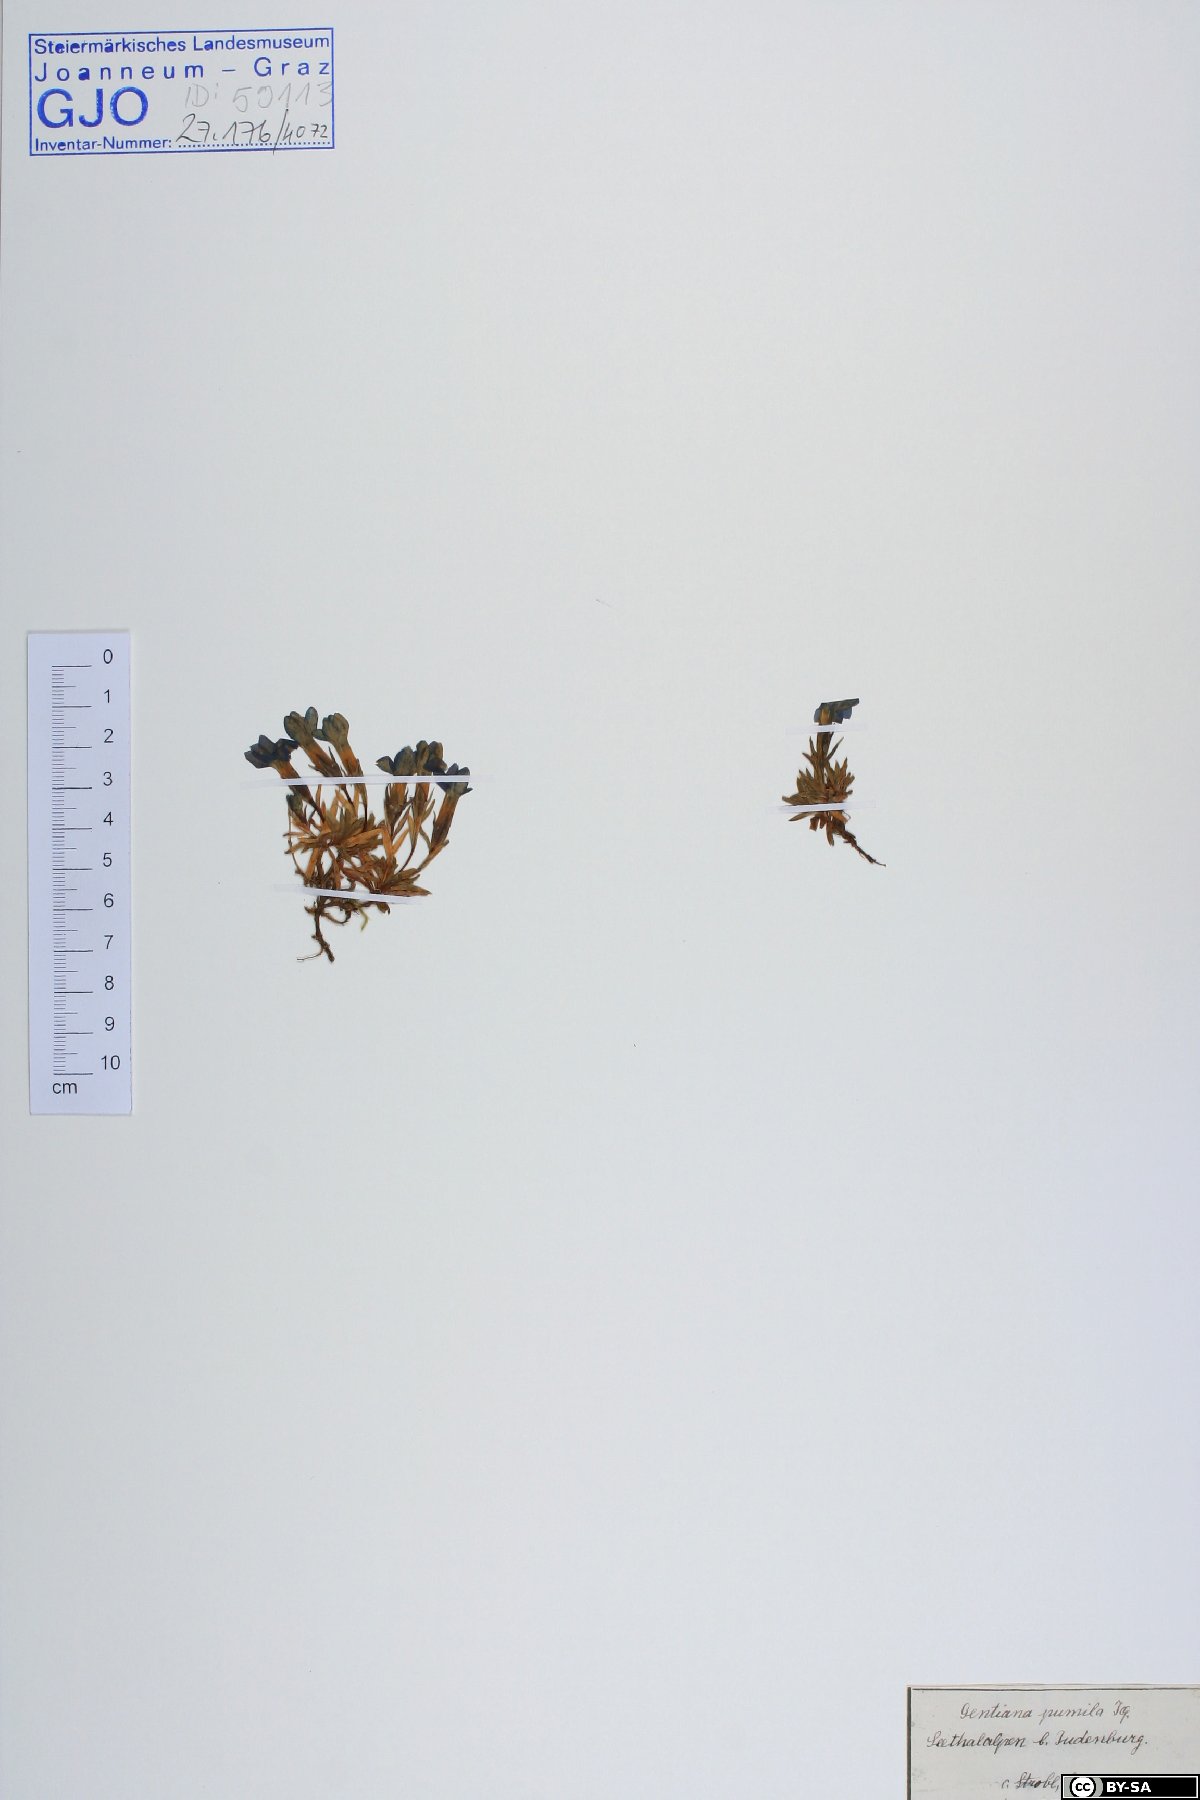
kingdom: Plantae
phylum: Tracheophyta
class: Magnoliopsida
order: Gentianales
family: Gentianaceae
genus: Gentiana
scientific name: Gentiana pumila
